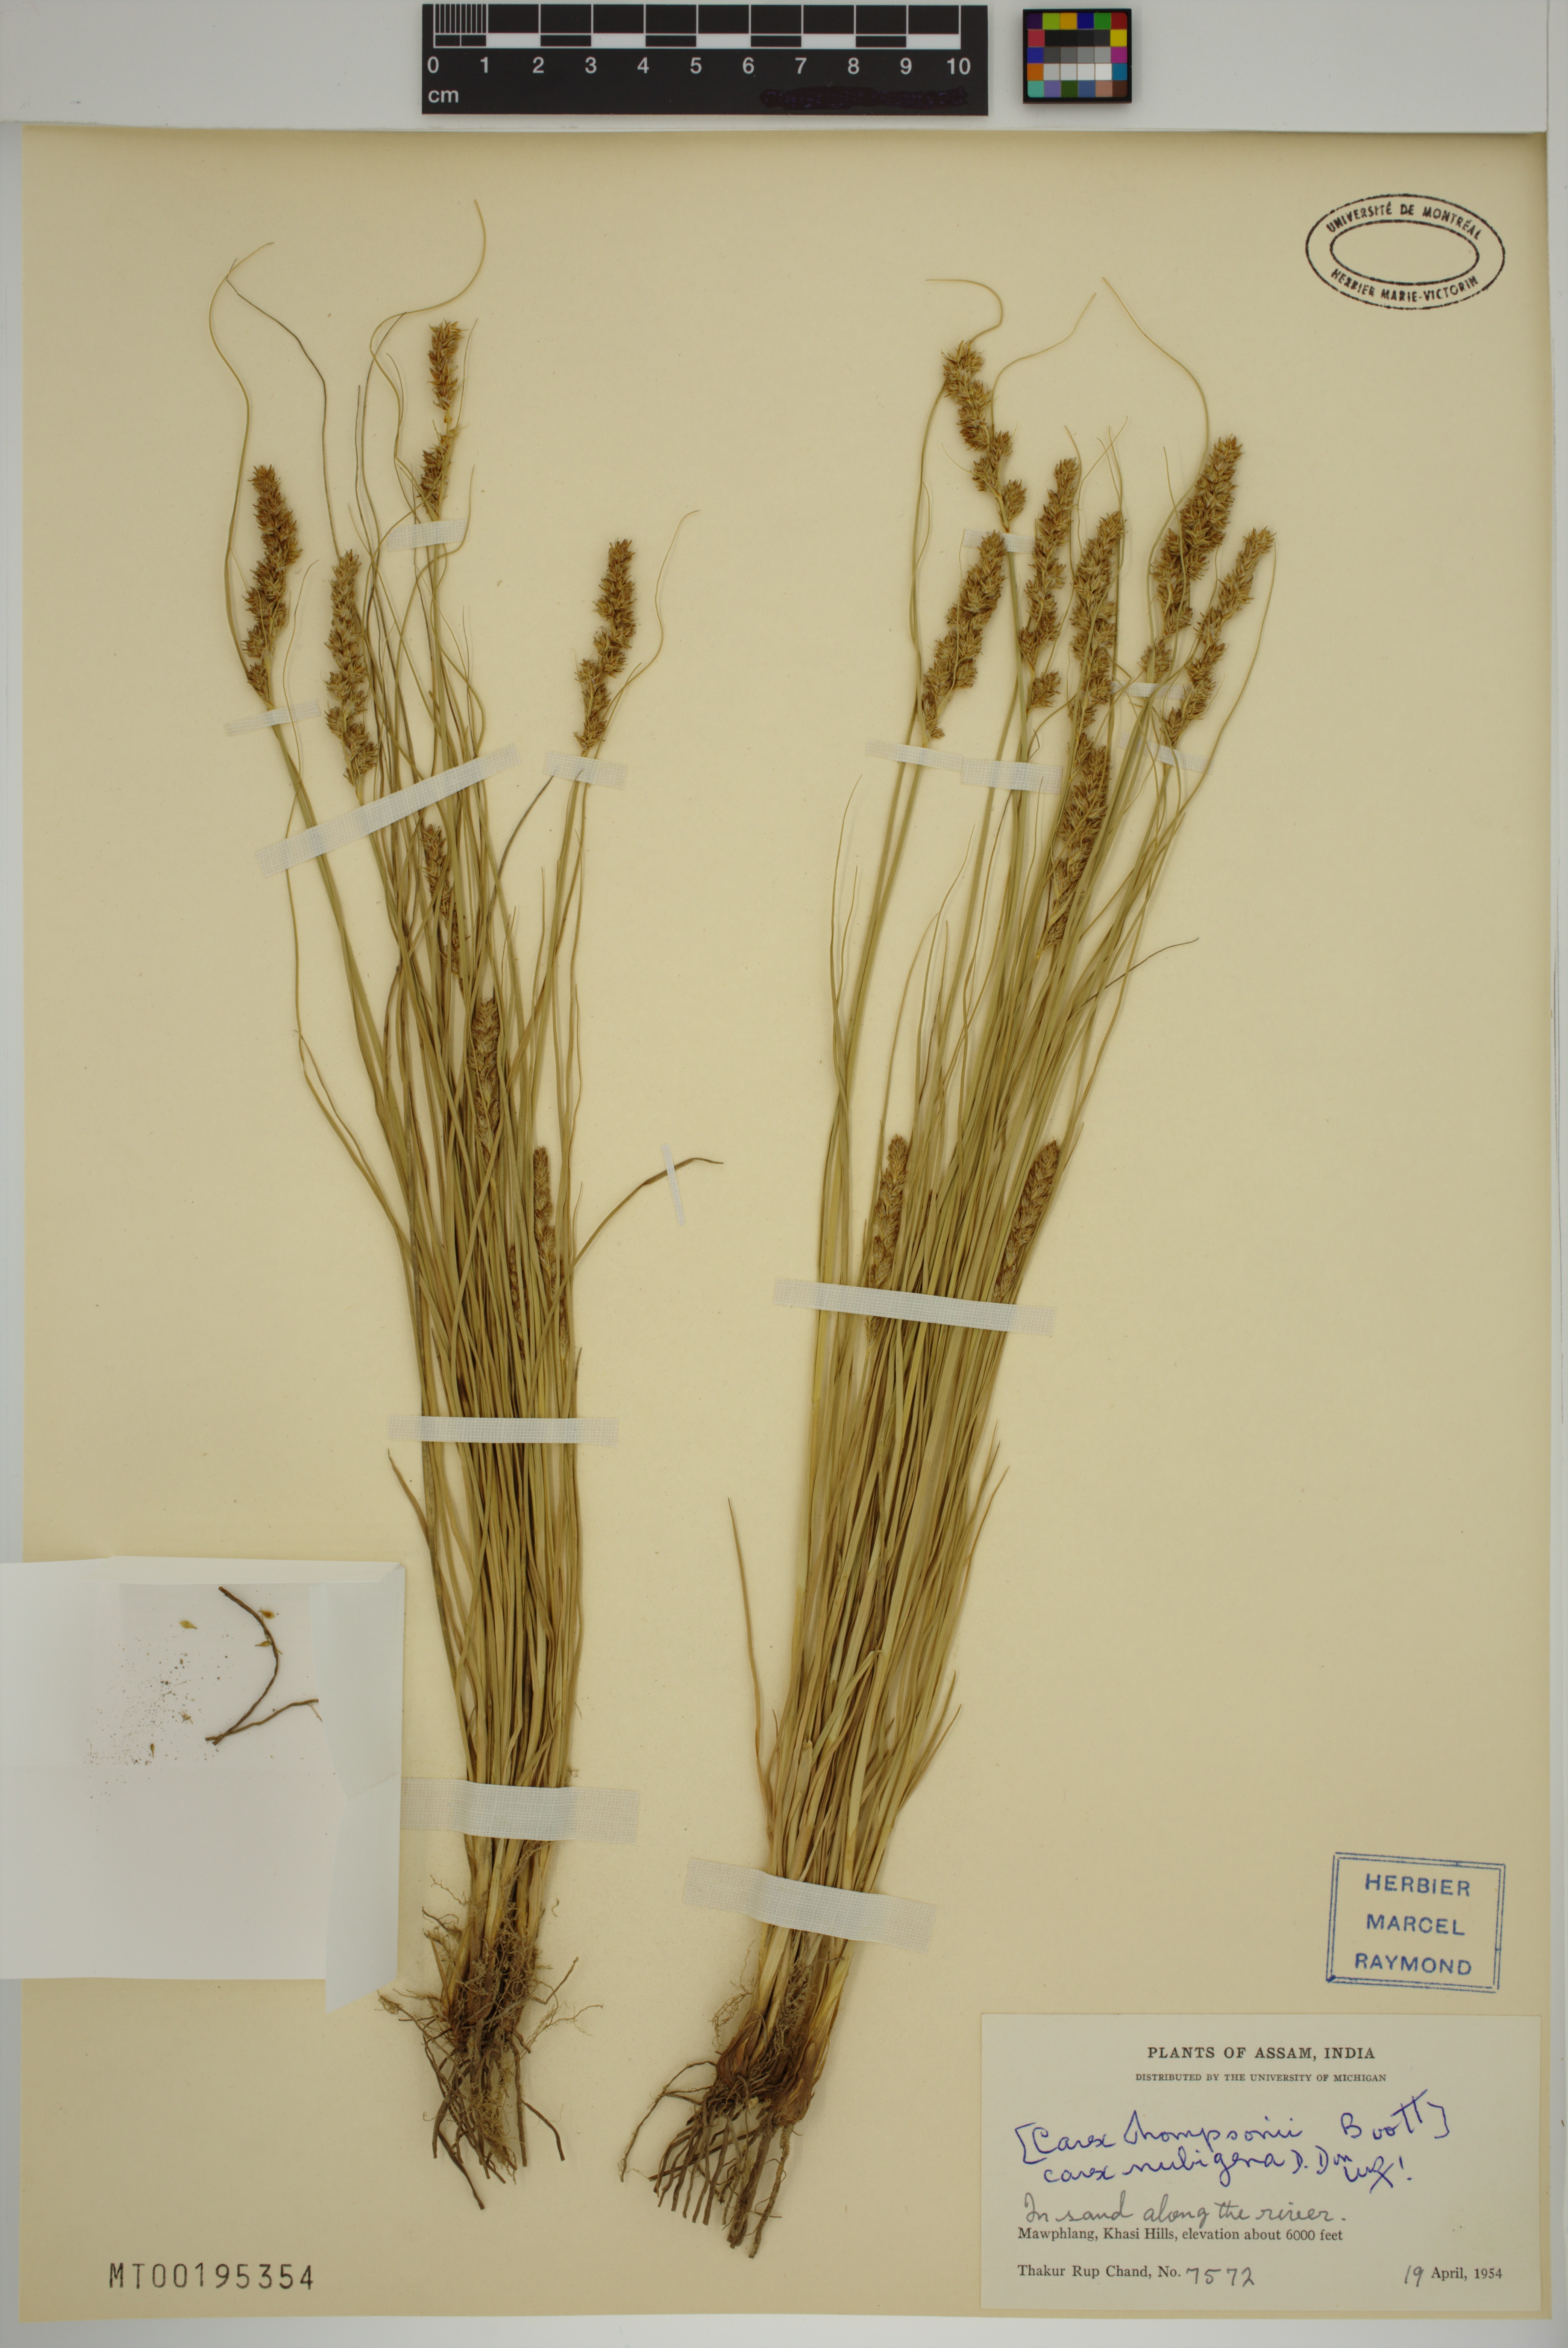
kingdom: Plantae
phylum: Tracheophyta
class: Liliopsida
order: Poales
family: Cyperaceae
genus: Carex
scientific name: Carex nubigena
